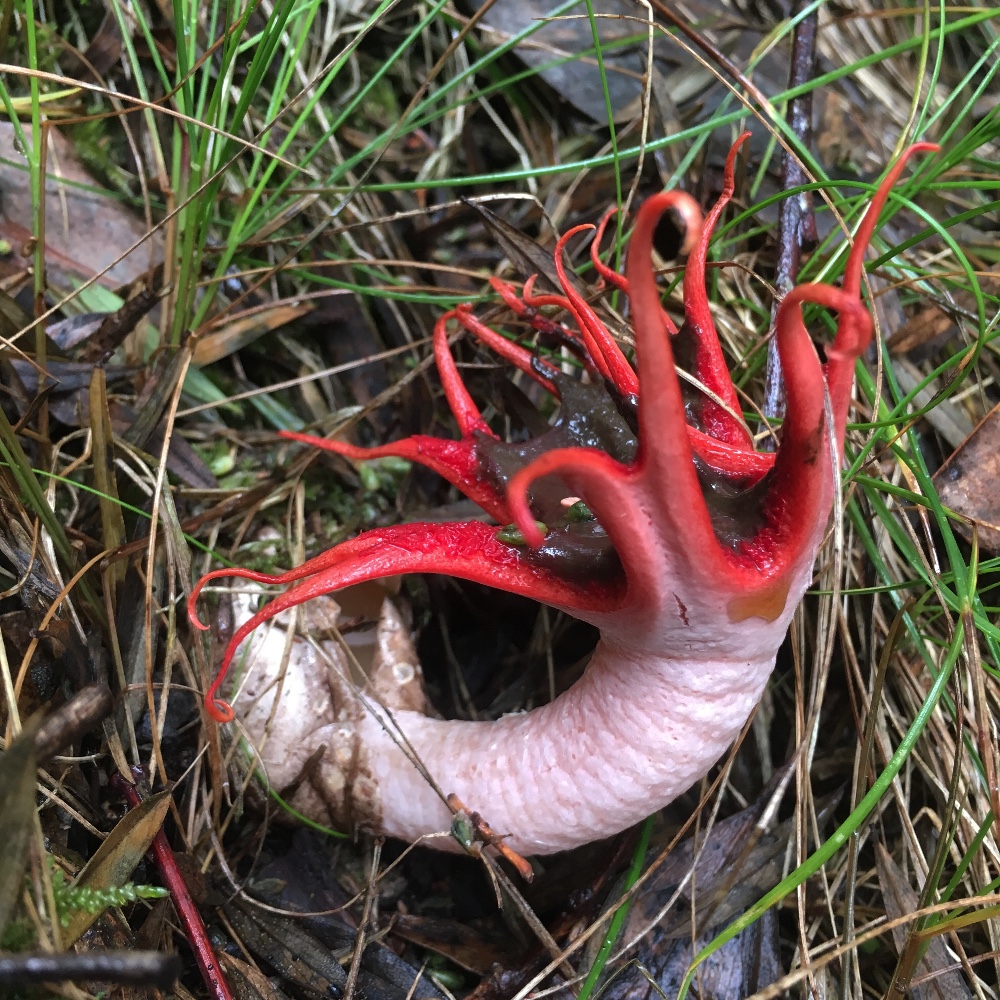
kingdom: Fungi
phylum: Basidiomycota
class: Agaricomycetes
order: Phallales
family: Phallaceae
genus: Aseroe
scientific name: Aseroe rubra
